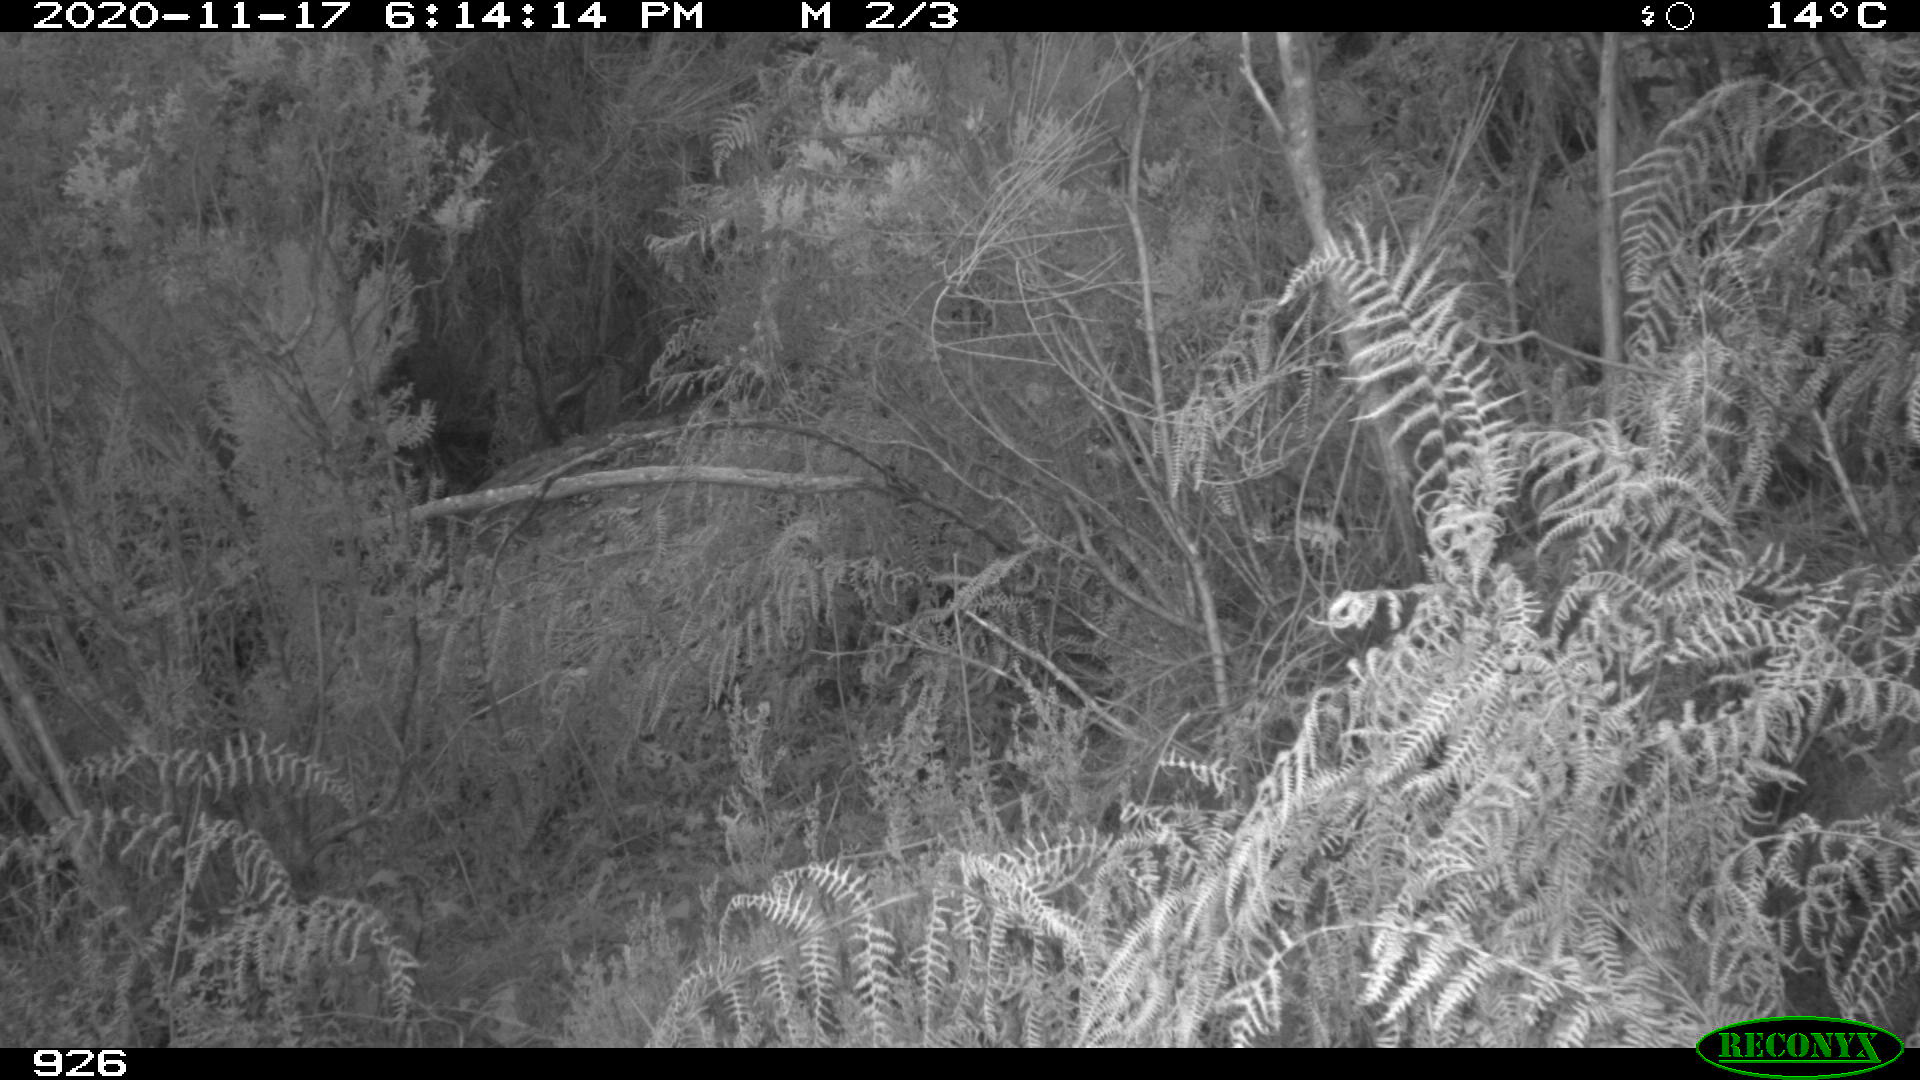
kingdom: Animalia
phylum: Chordata
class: Mammalia
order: Perissodactyla
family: Equidae
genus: Equus
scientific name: Equus caballus
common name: Horse
